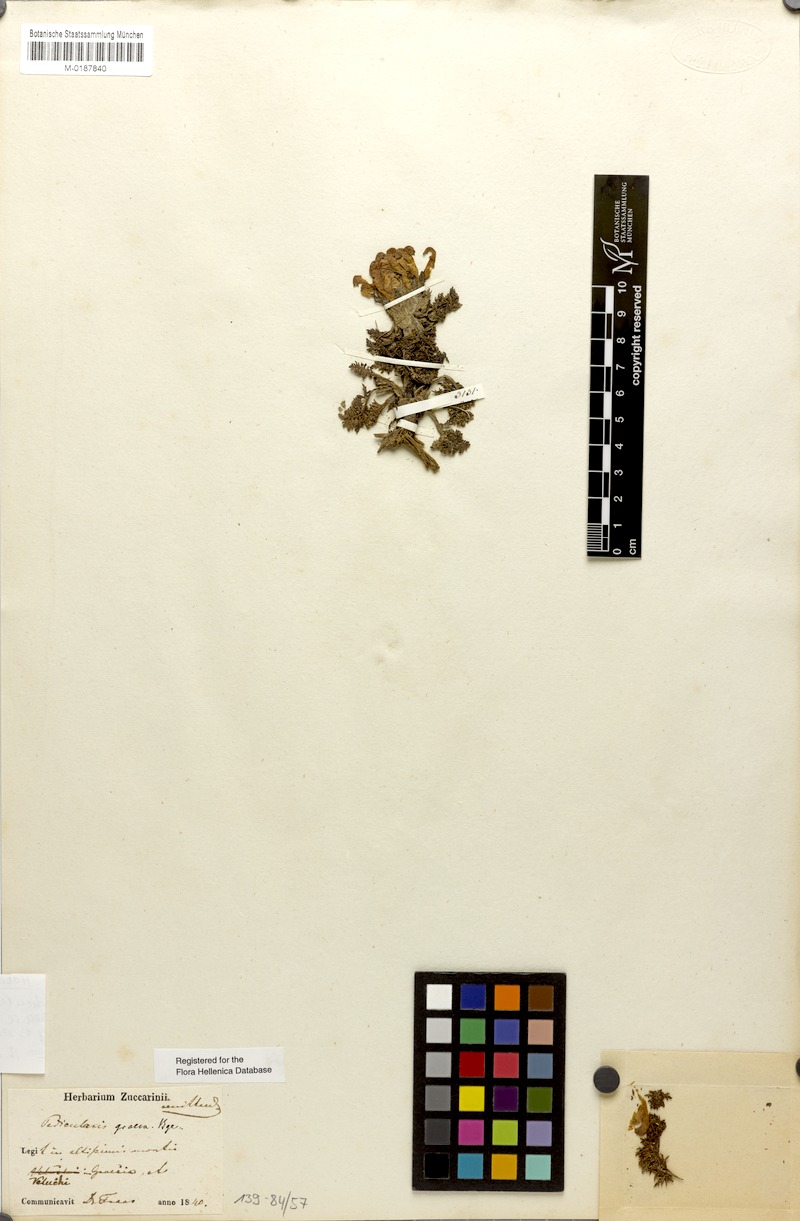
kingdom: Plantae
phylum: Tracheophyta
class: Magnoliopsida
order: Lamiales
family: Orobanchaceae
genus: Pedicularis
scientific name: Pedicularis graeca
